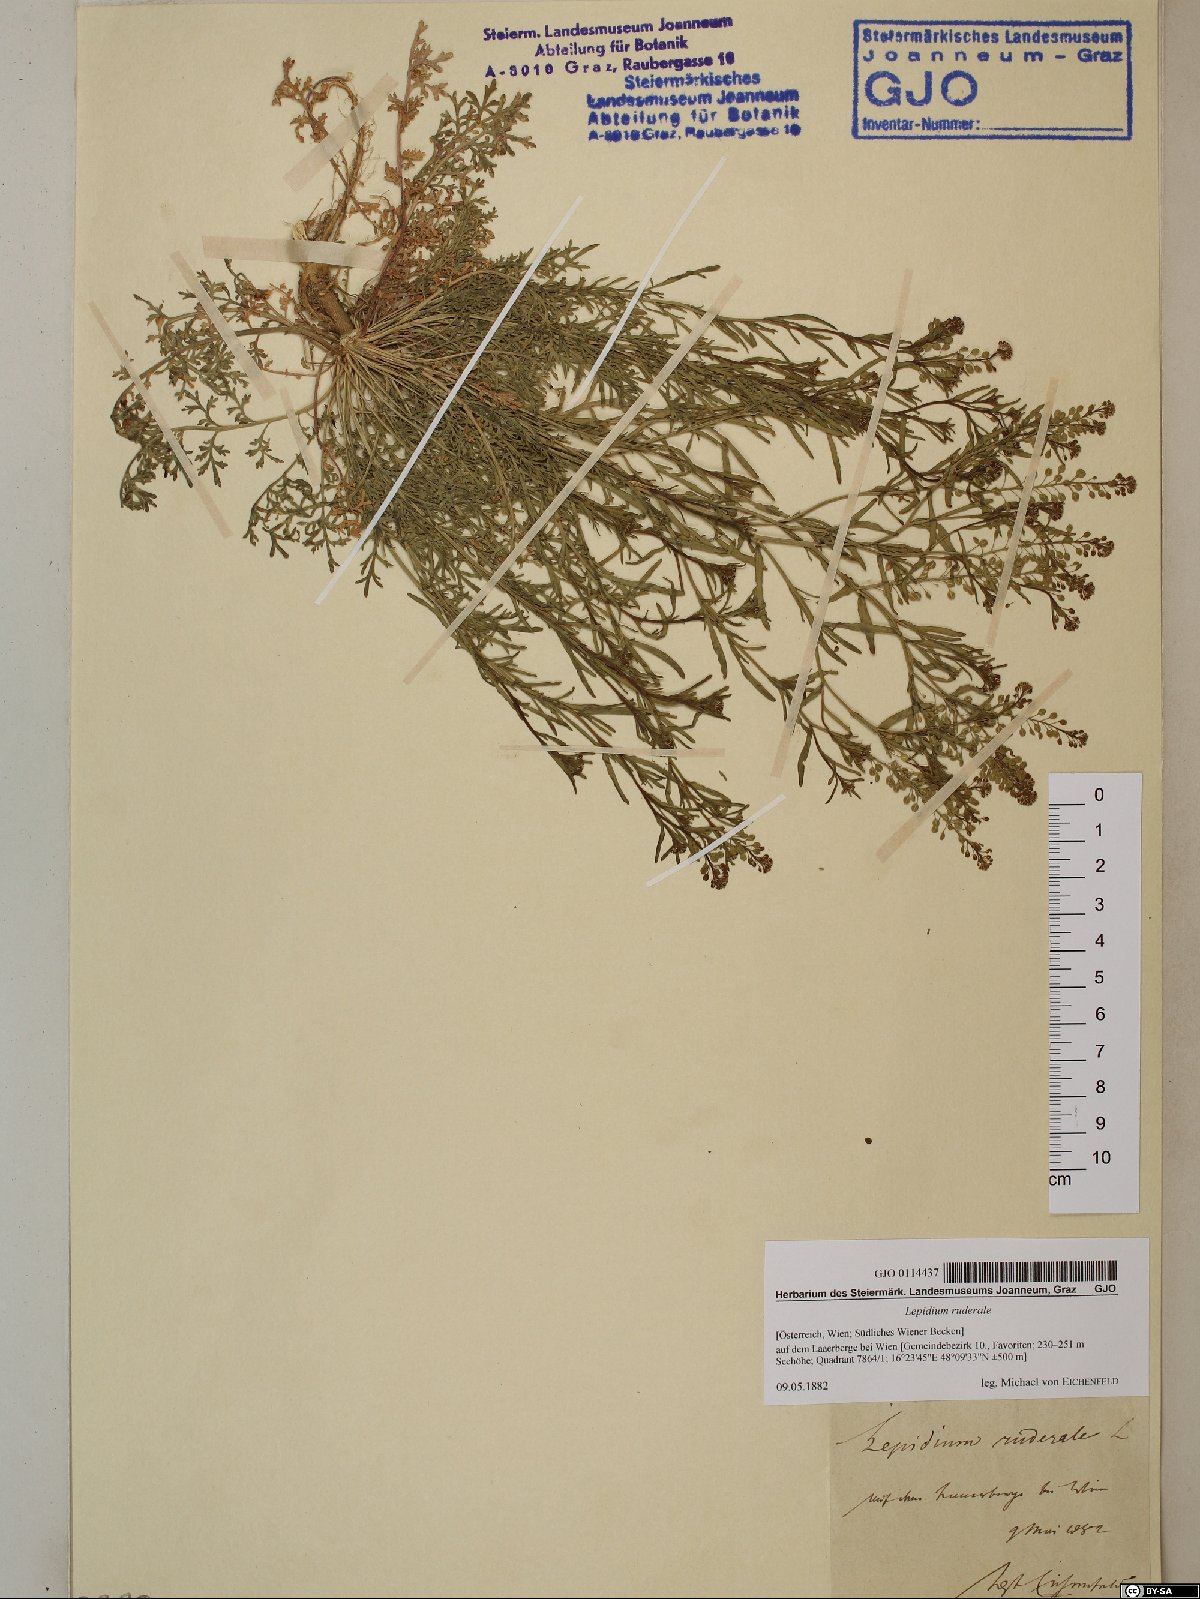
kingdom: Plantae
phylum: Tracheophyta
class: Magnoliopsida
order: Brassicales
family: Brassicaceae
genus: Lepidium
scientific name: Lepidium ruderale
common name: Narrow-leaved pepperwort
